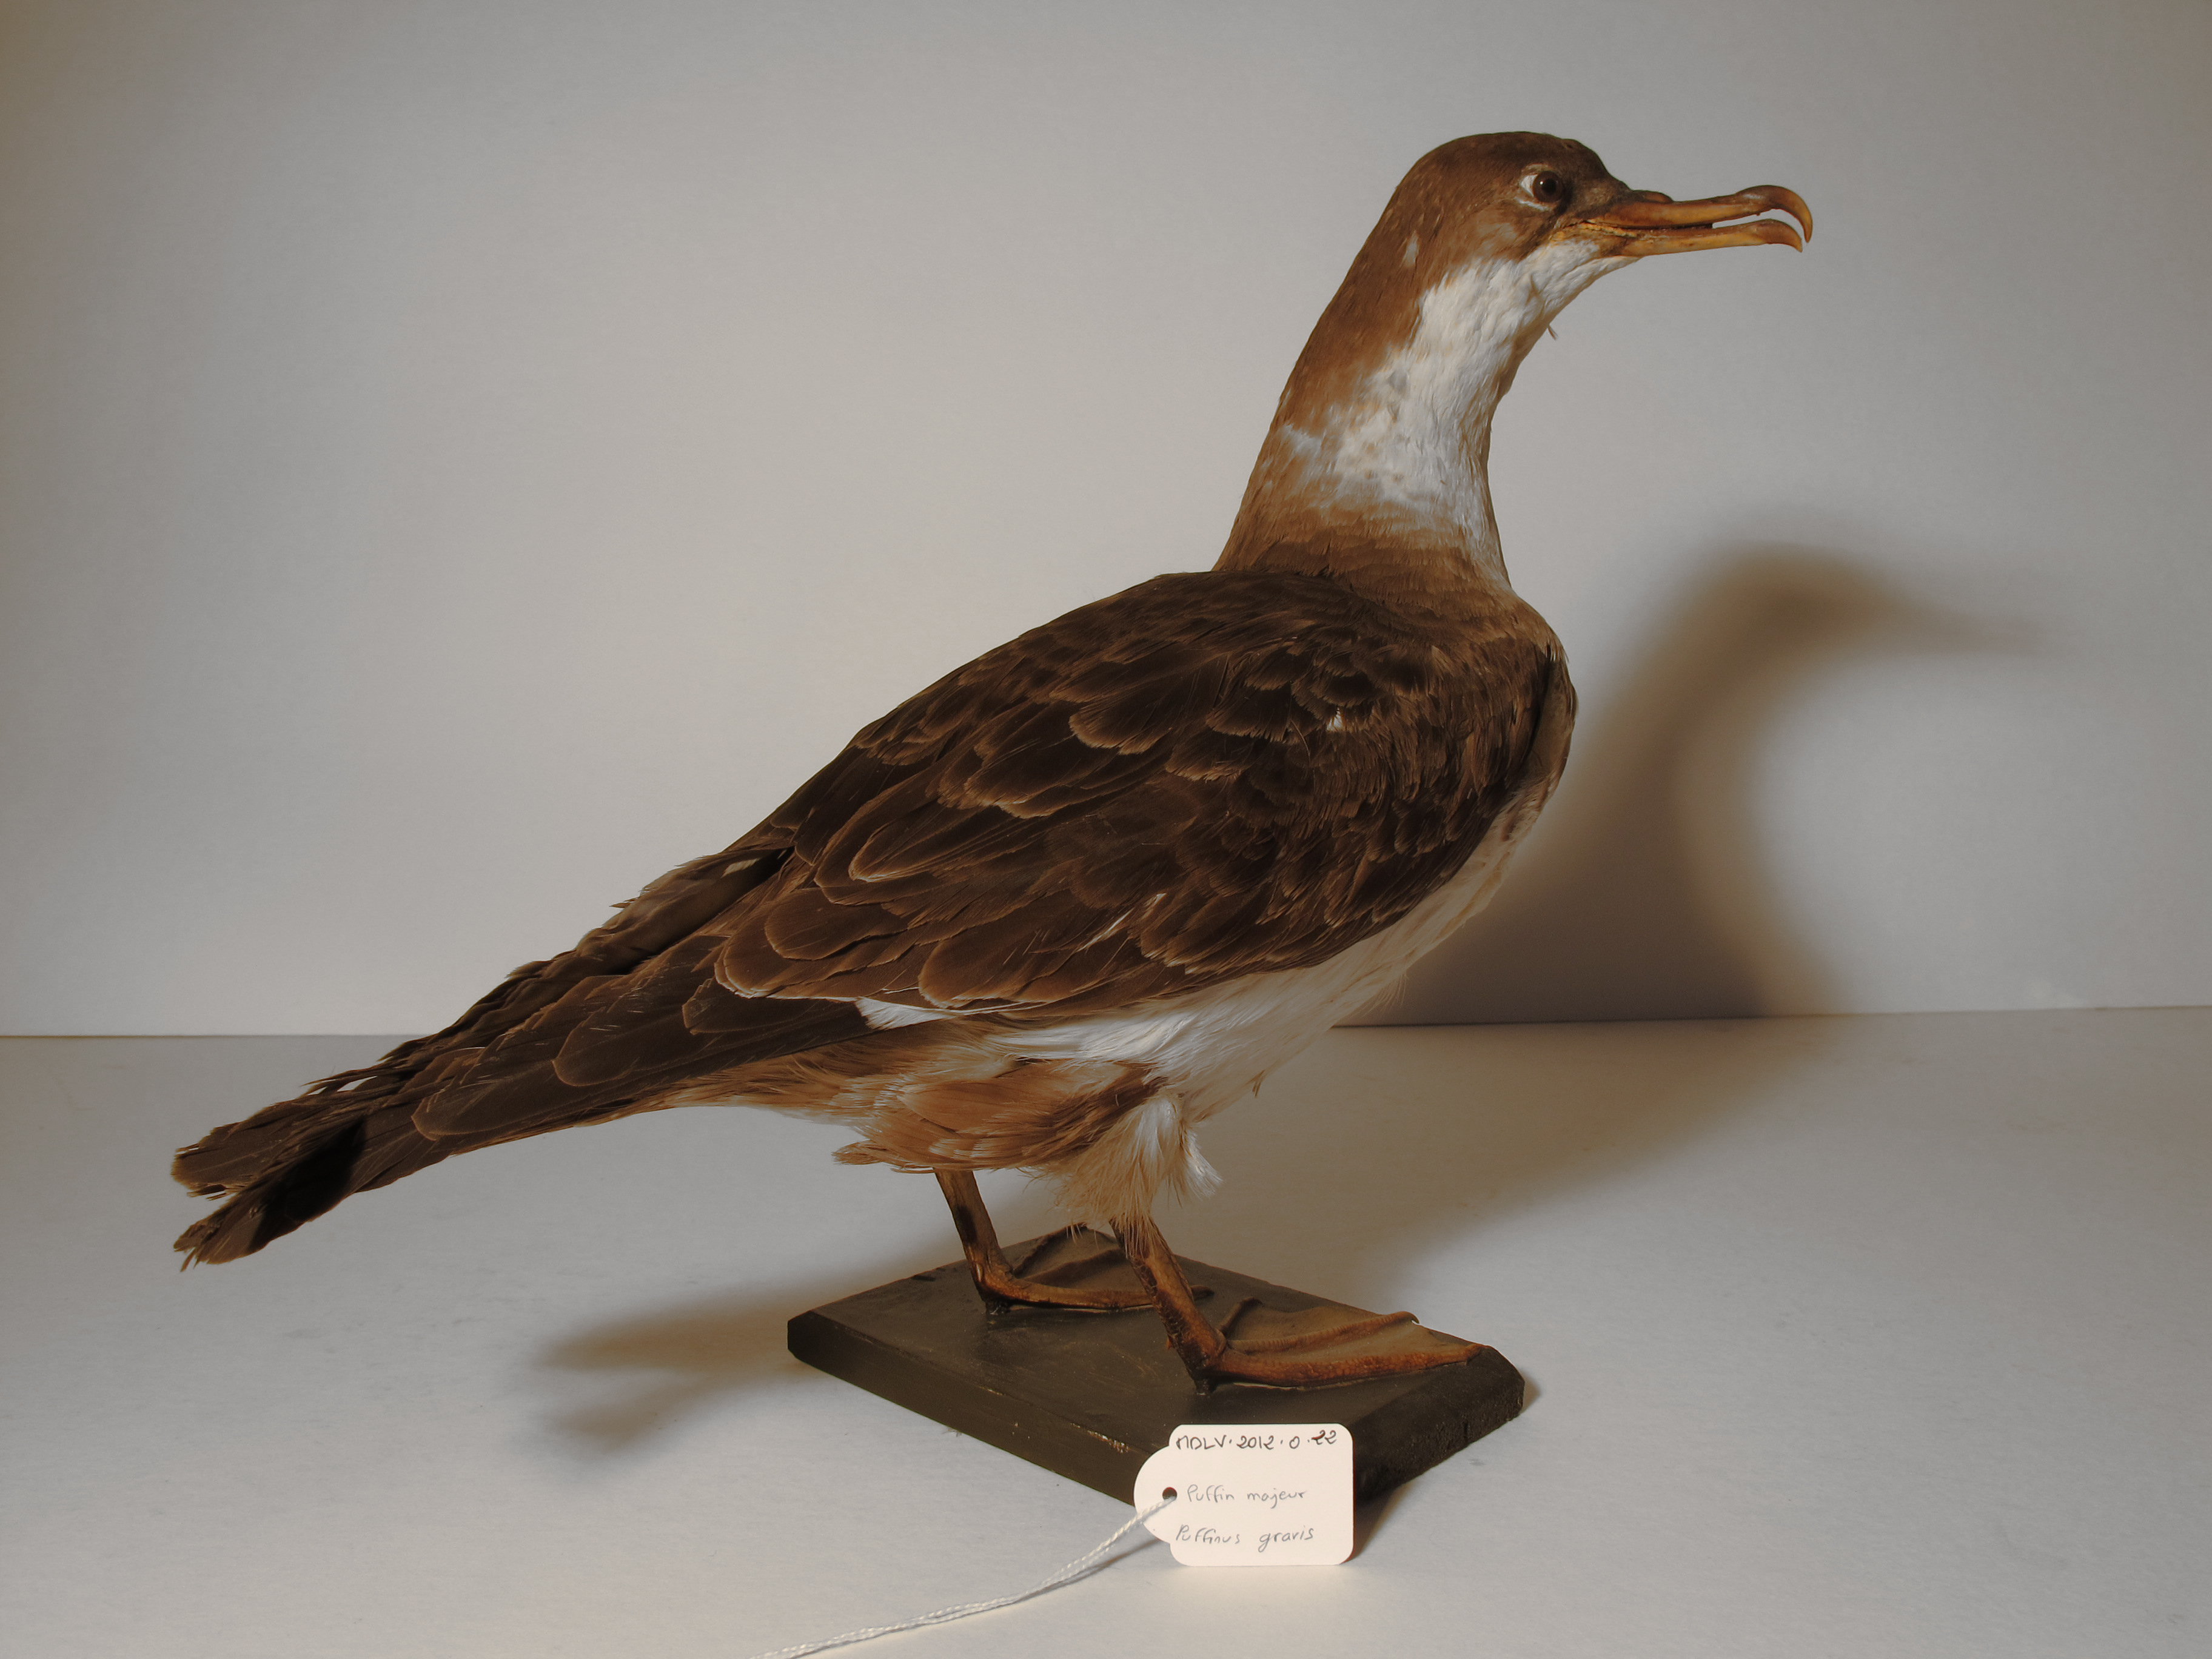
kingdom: Animalia
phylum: Chordata
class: Aves
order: Procellariiformes
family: Procellariidae
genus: Puffinus
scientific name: Puffinus gravis
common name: Great Shearwater
